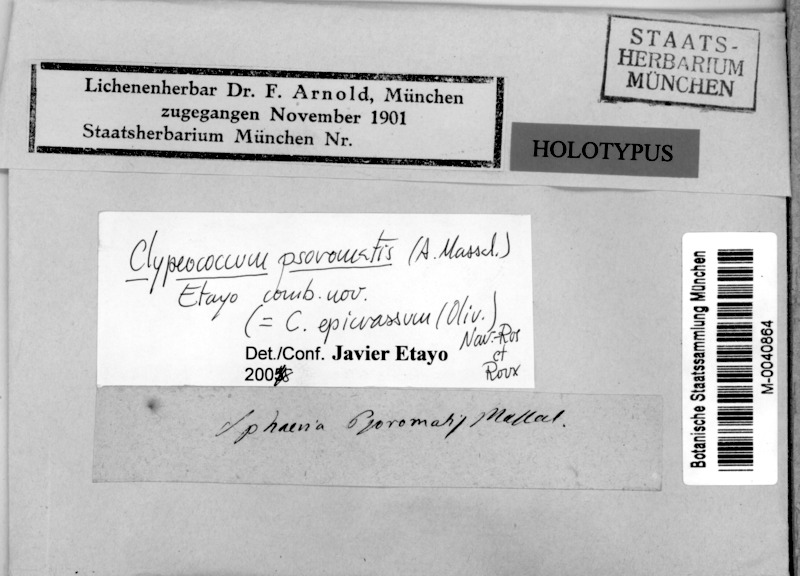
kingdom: Fungi
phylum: Ascomycota
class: Lecanoromycetes
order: Lecanorales
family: Stereocaulaceae
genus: Squamarina
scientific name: Squamarina cartilaginea
